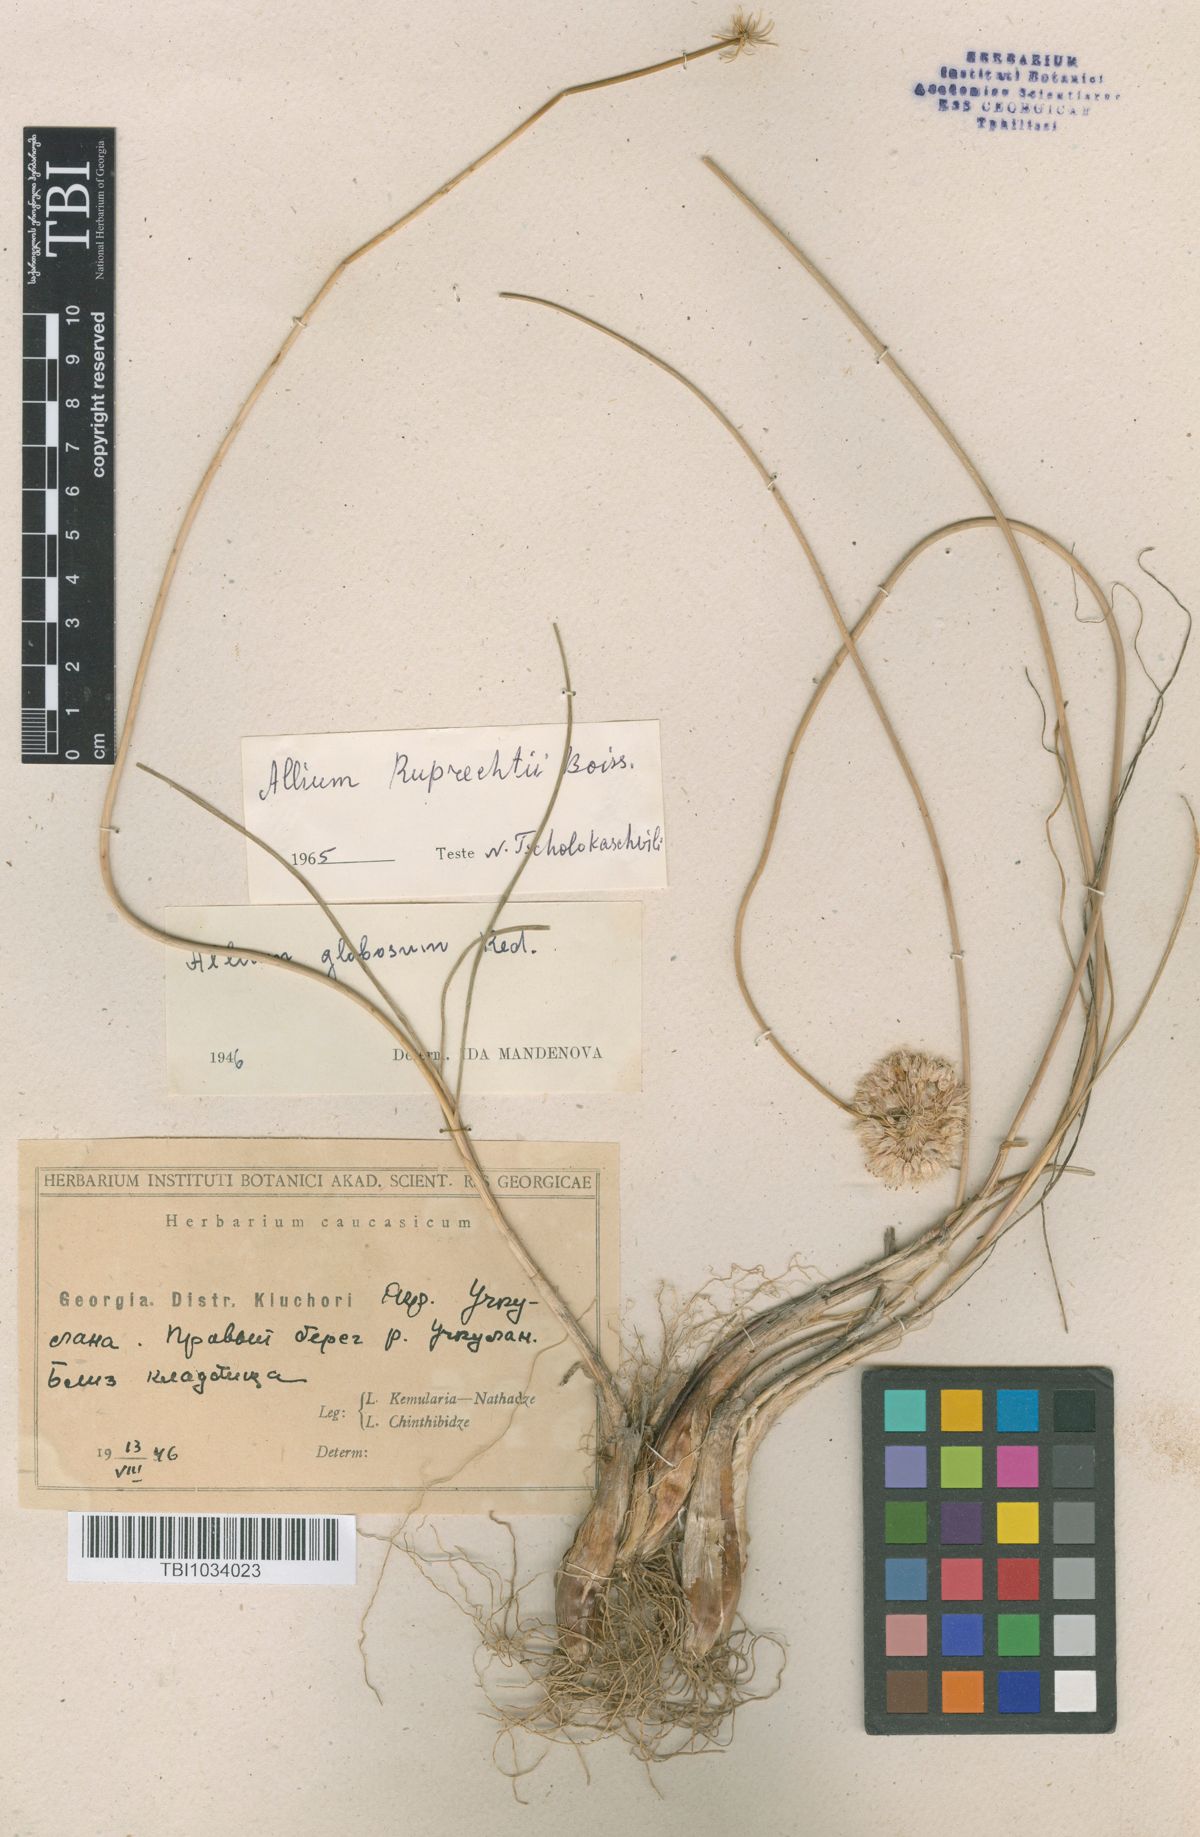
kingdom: Plantae
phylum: Tracheophyta
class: Liliopsida
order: Asparagales
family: Amaryllidaceae
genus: Allium
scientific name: Allium saxatile
